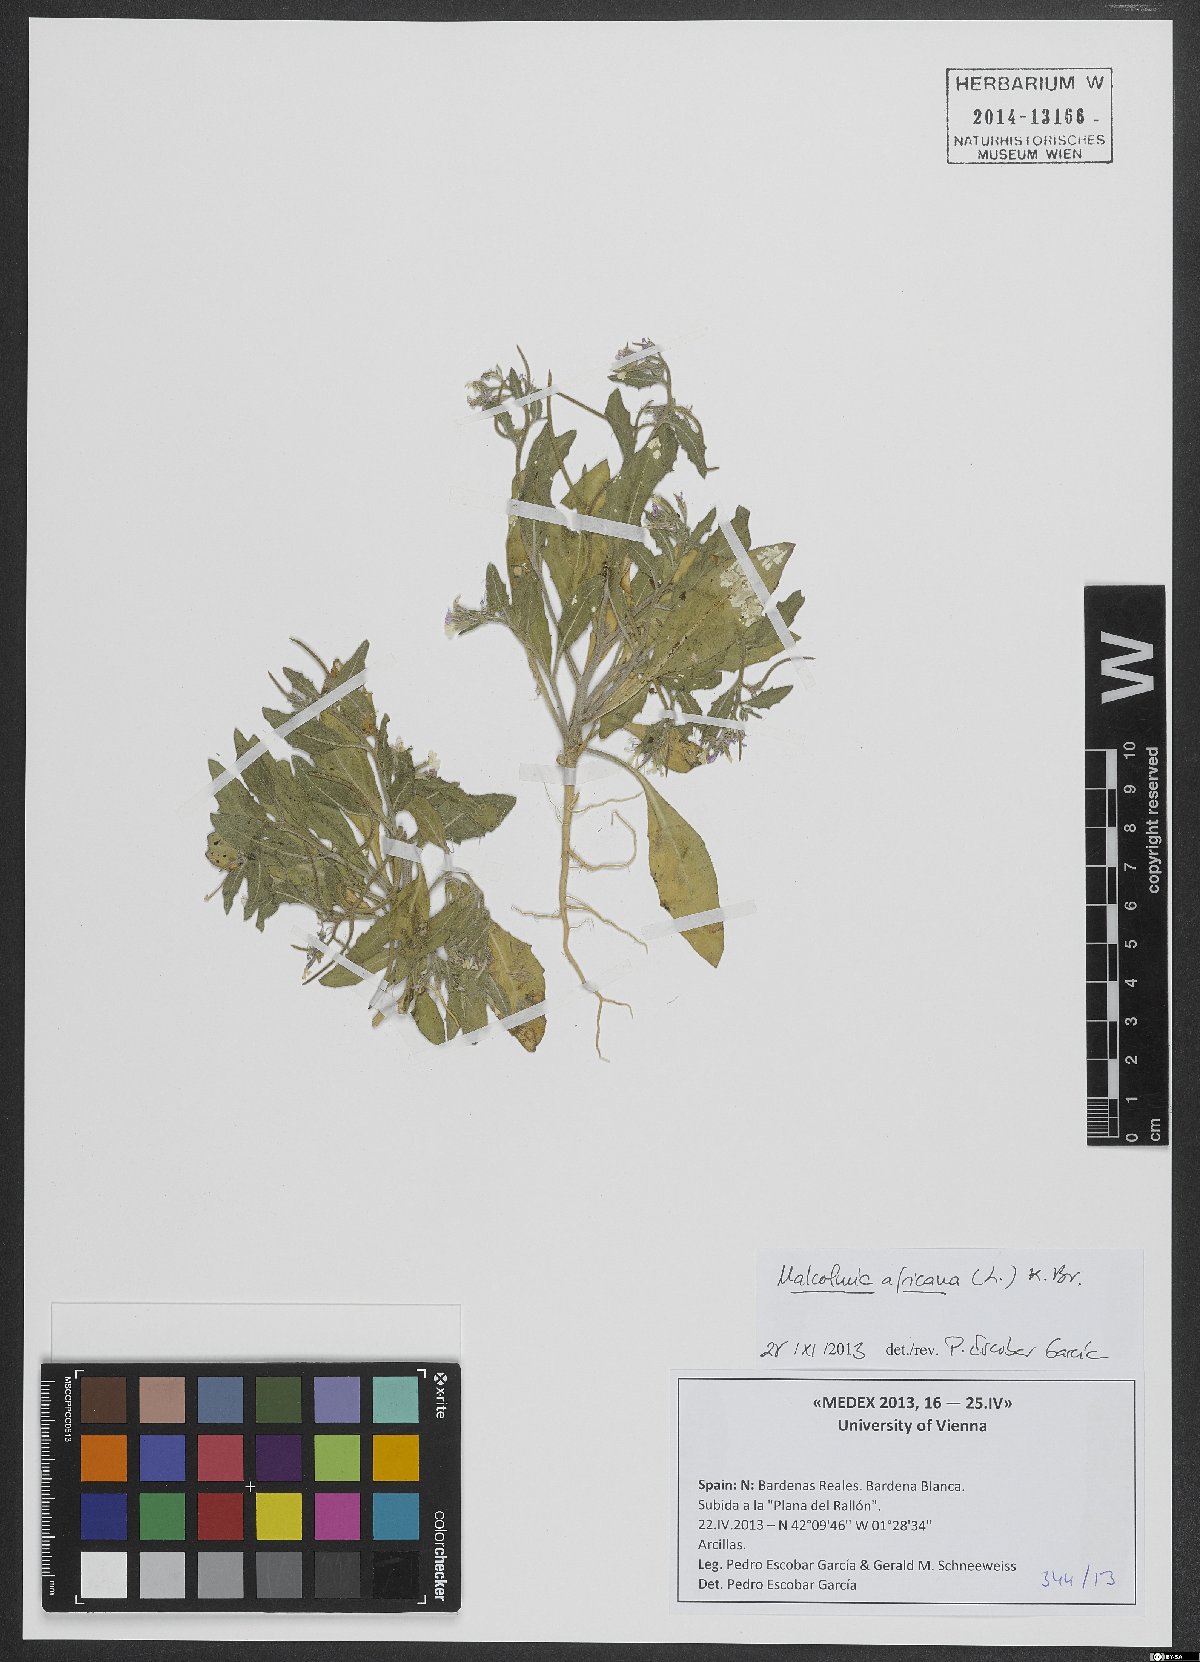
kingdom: Plantae
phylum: Tracheophyta
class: Magnoliopsida
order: Brassicales
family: Brassicaceae
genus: Malcolmia
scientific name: Malcolmia africana
